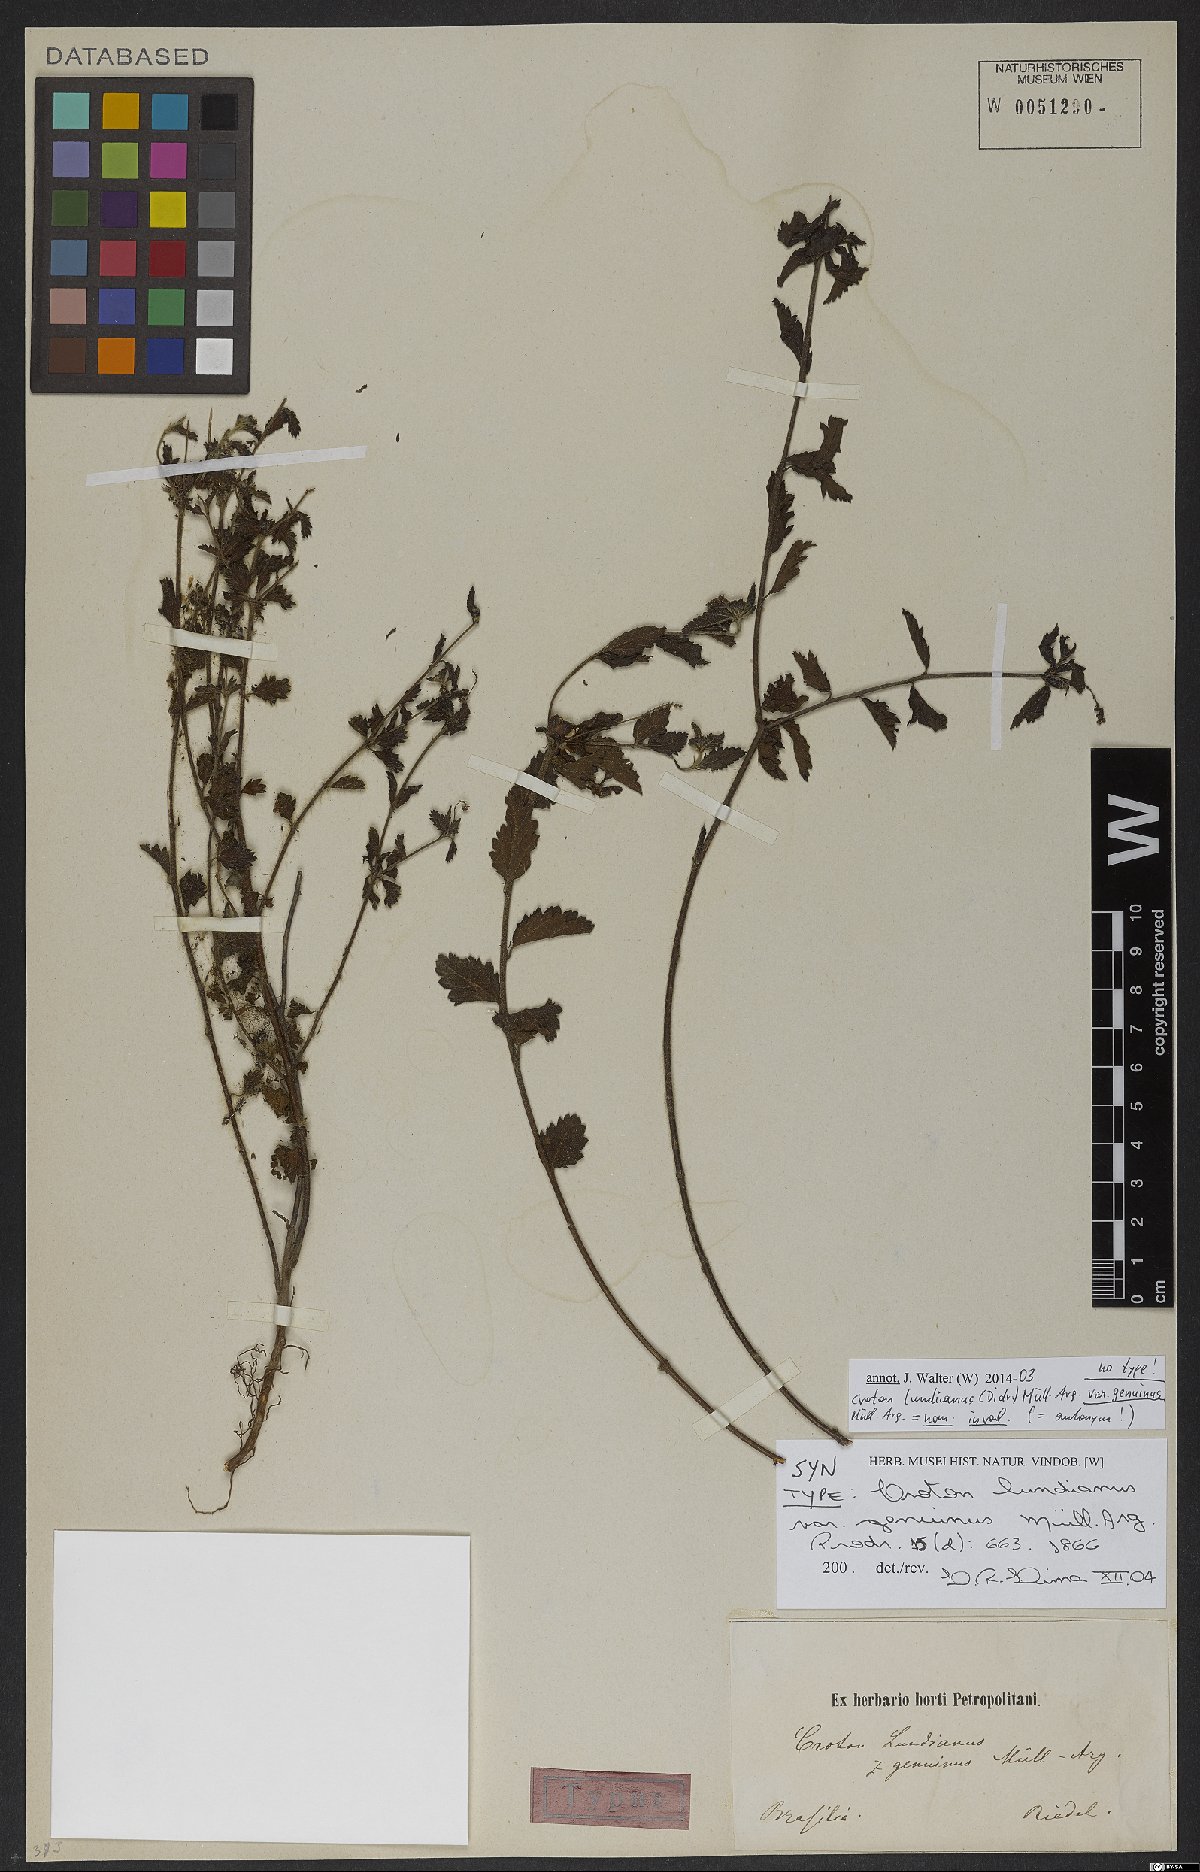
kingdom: Plantae
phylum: Tracheophyta
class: Magnoliopsida
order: Malpighiales
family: Euphorbiaceae
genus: Croton
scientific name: Croton lundianus
